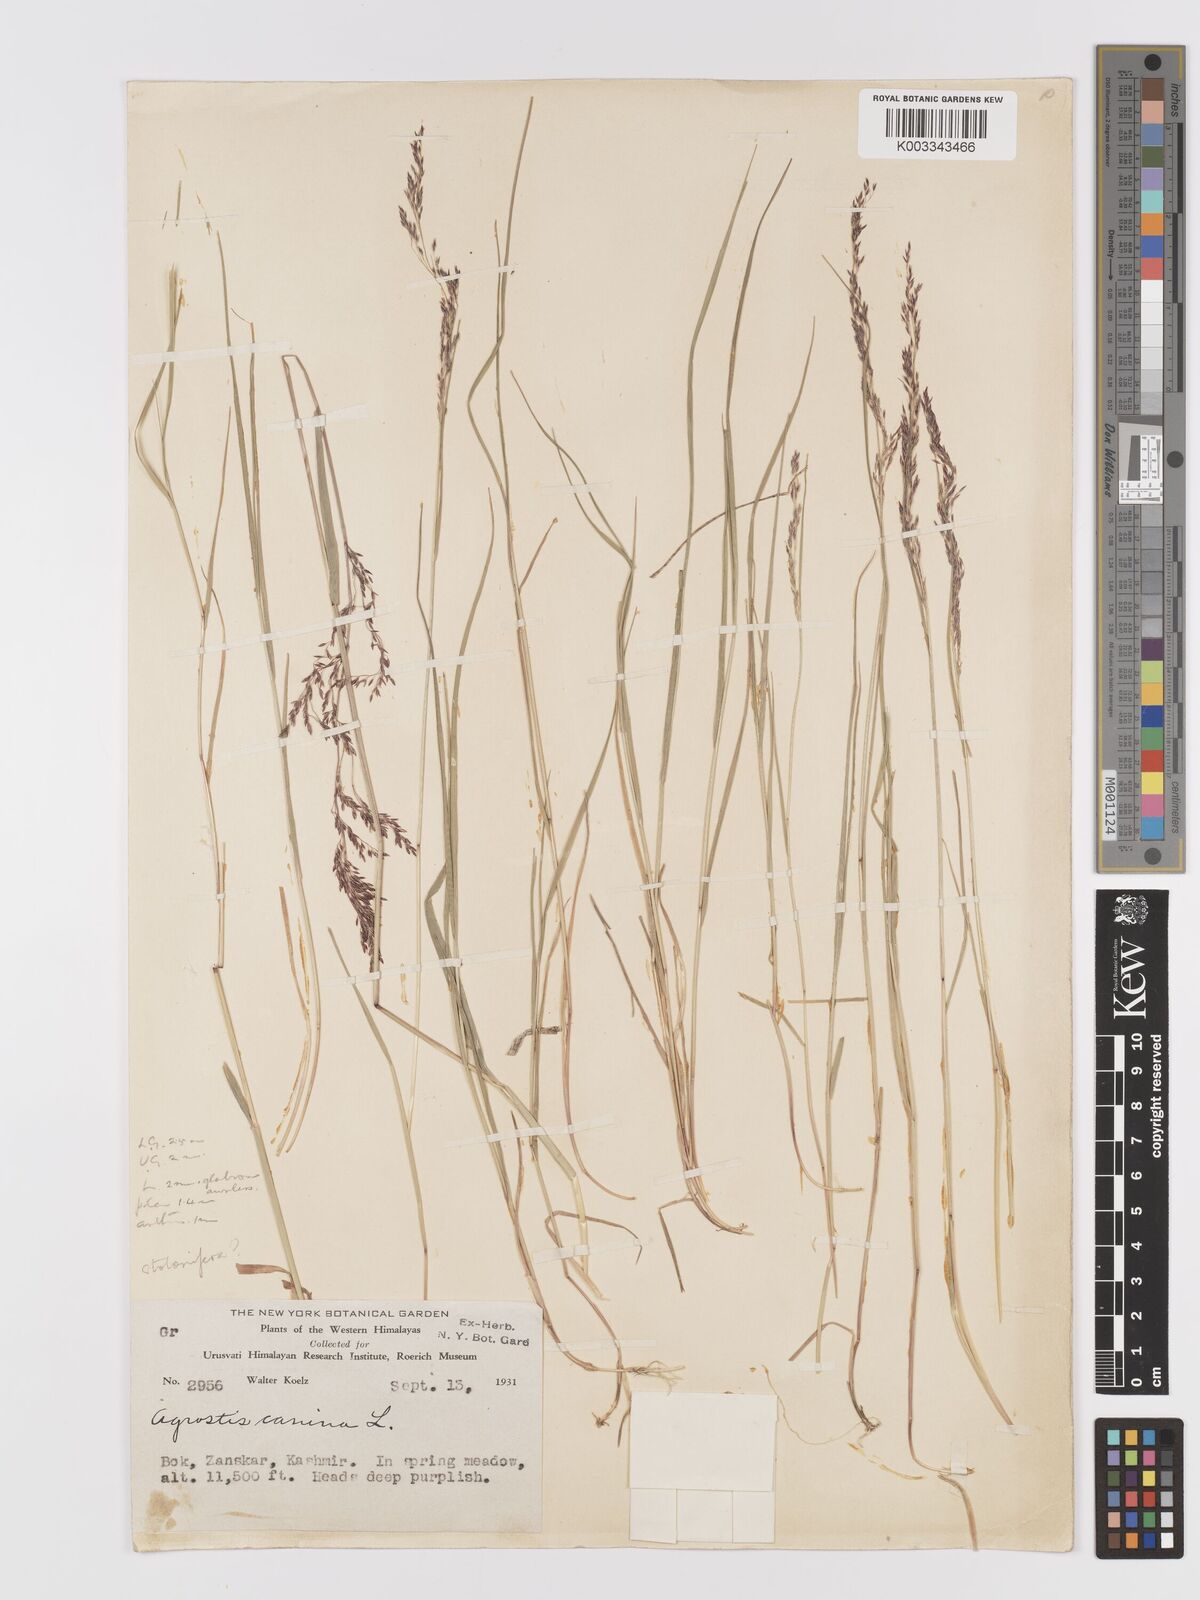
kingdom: Plantae
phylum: Tracheophyta
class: Liliopsida
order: Poales
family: Poaceae
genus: Agrostis
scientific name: Agrostis stolonifera
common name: Creeping bentgrass
